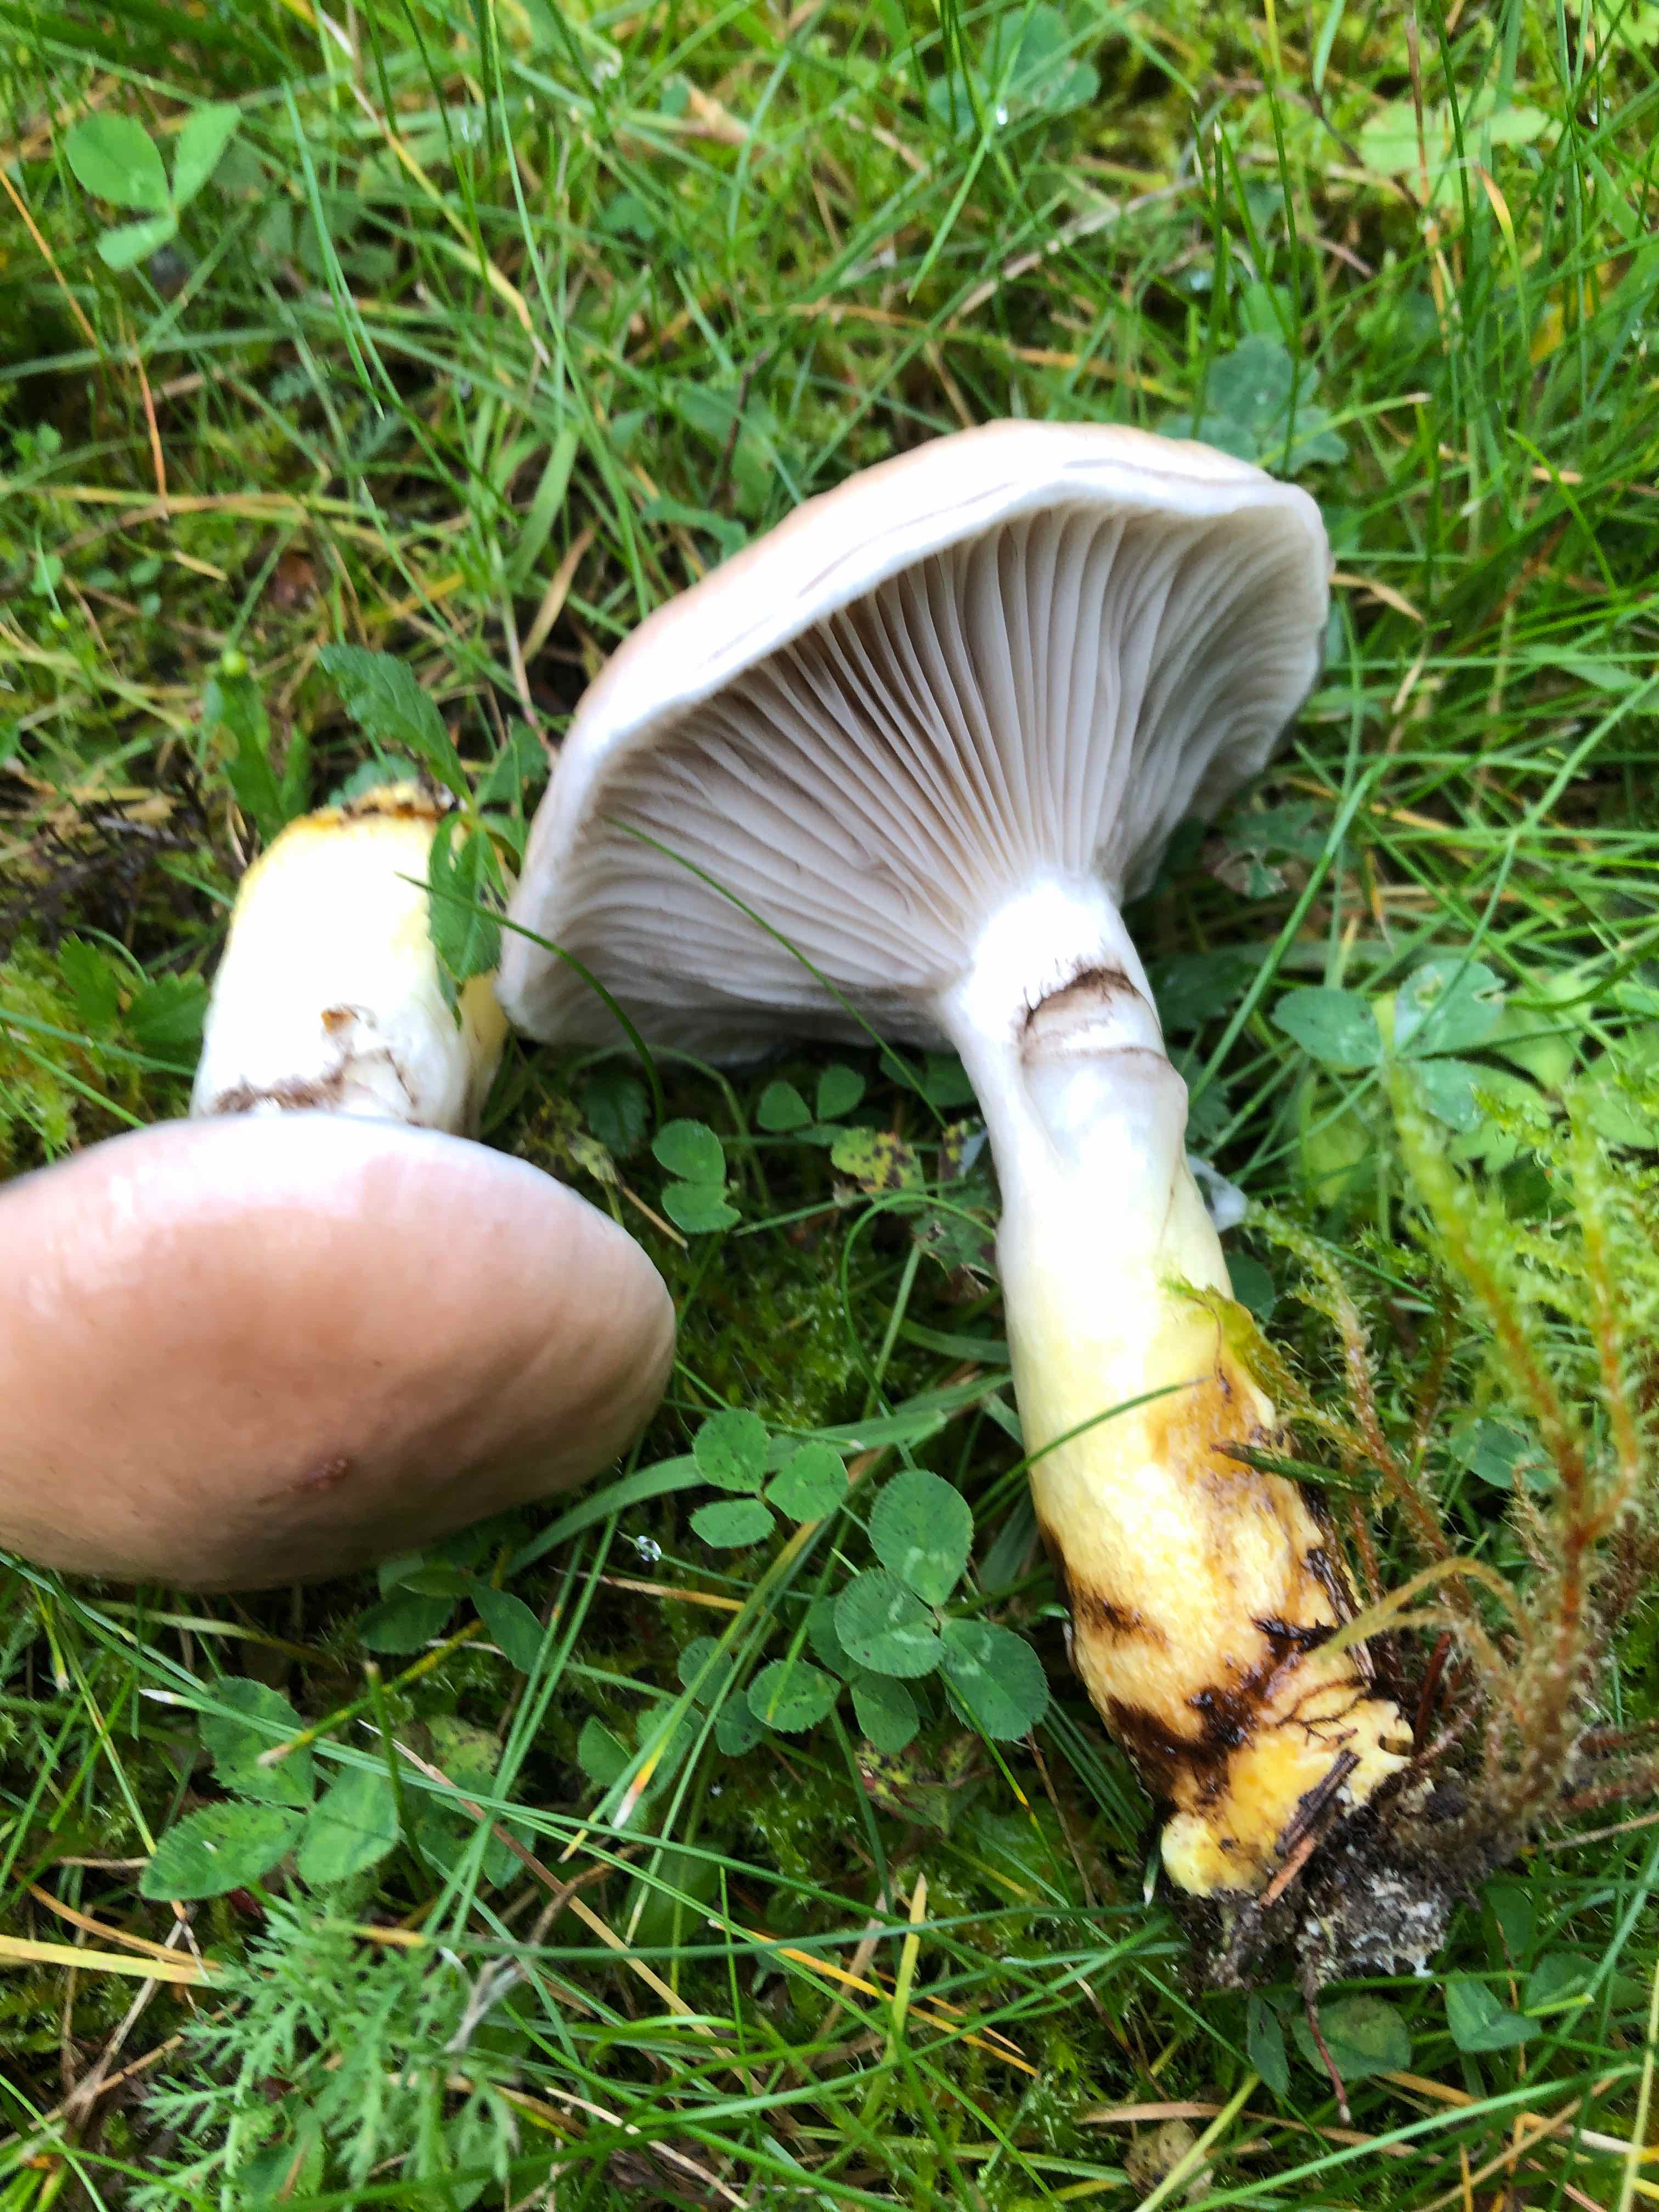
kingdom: Fungi
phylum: Basidiomycota
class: Agaricomycetes
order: Boletales
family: Gomphidiaceae
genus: Gomphidius
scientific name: Gomphidius glutinosus
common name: grå slimslør
